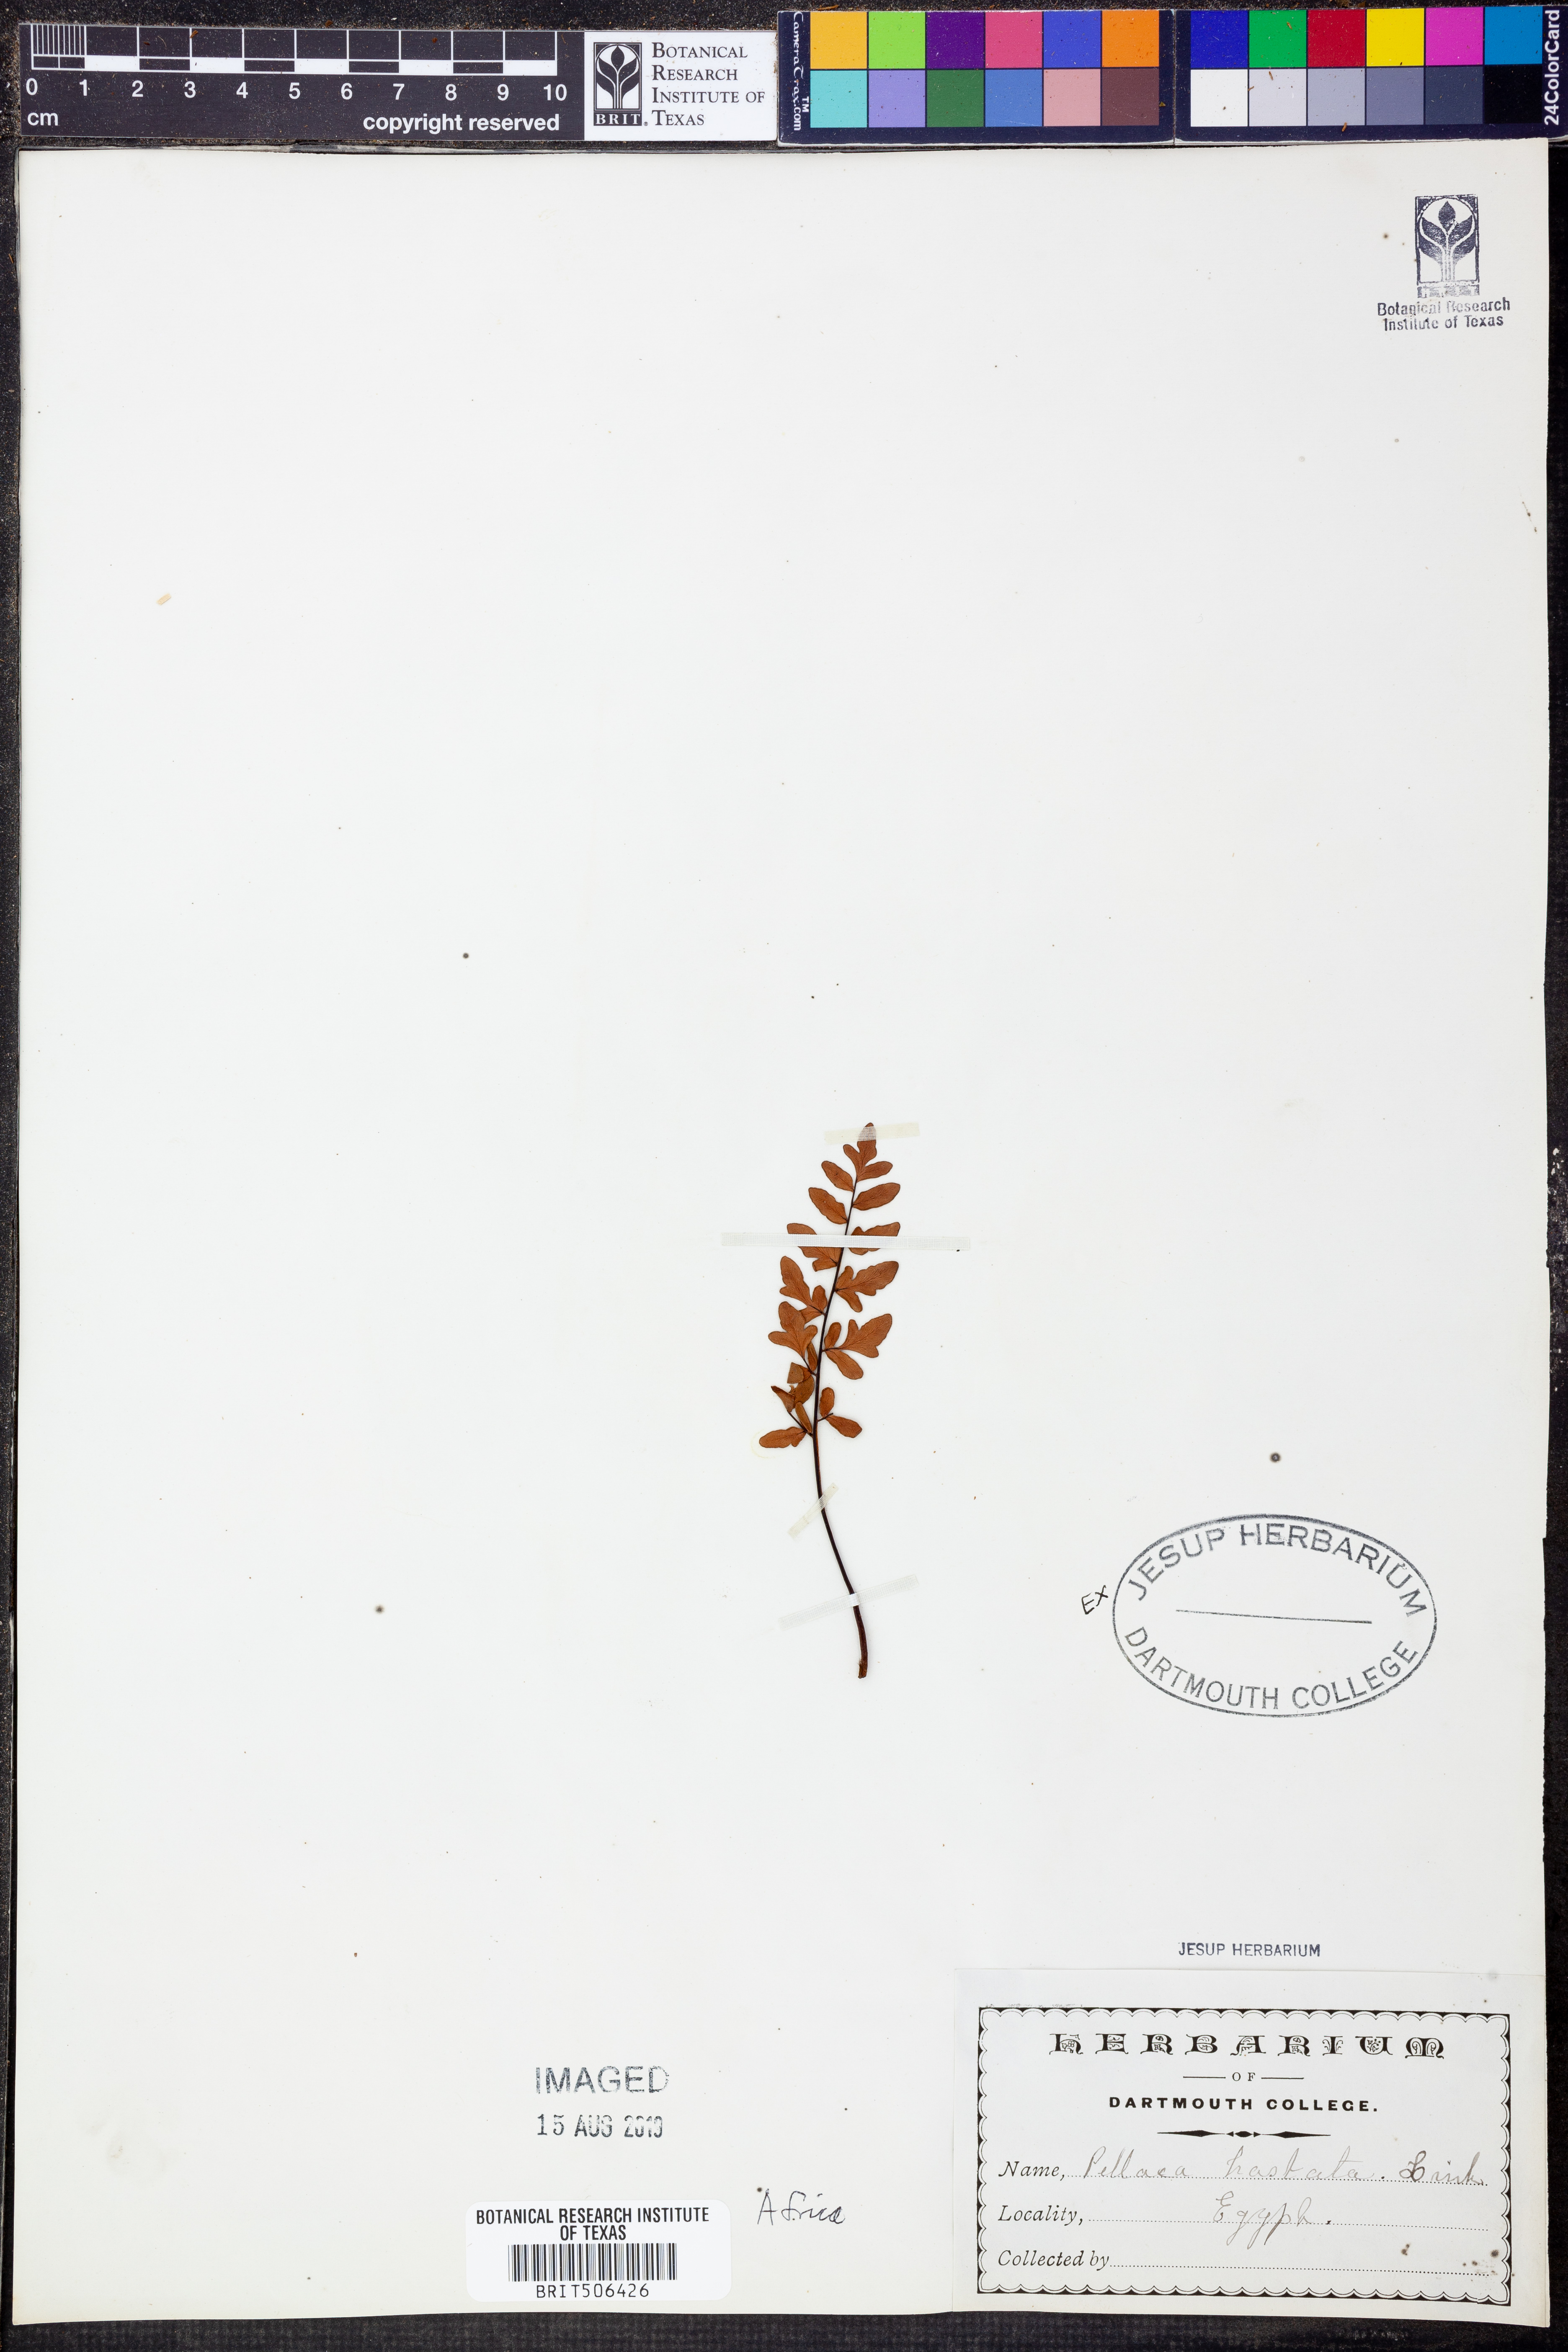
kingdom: Plantae
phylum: Tracheophyta
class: Polypodiopsida
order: Polypodiales
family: Pteridaceae
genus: Cheilanthes
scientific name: Cheilanthes hastata
